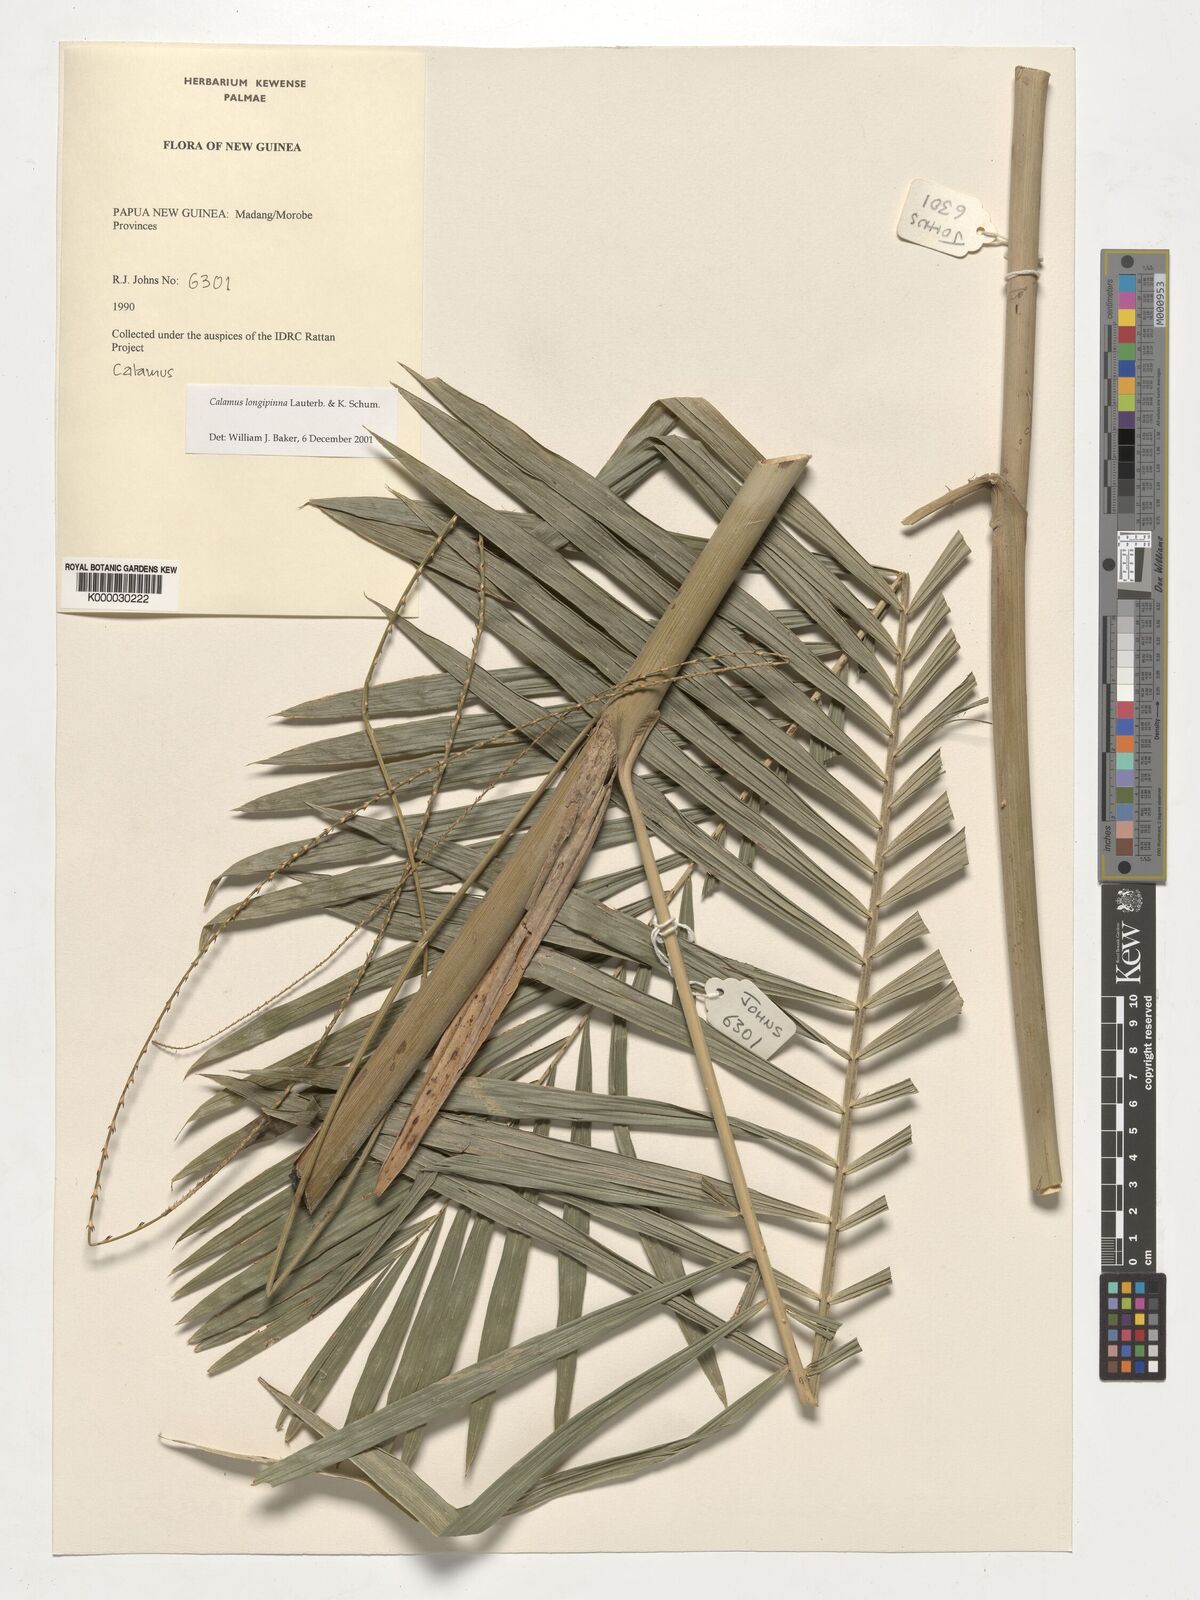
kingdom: Plantae
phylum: Tracheophyta
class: Liliopsida
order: Arecales
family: Arecaceae
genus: Calamus
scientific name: Calamus longipinna
